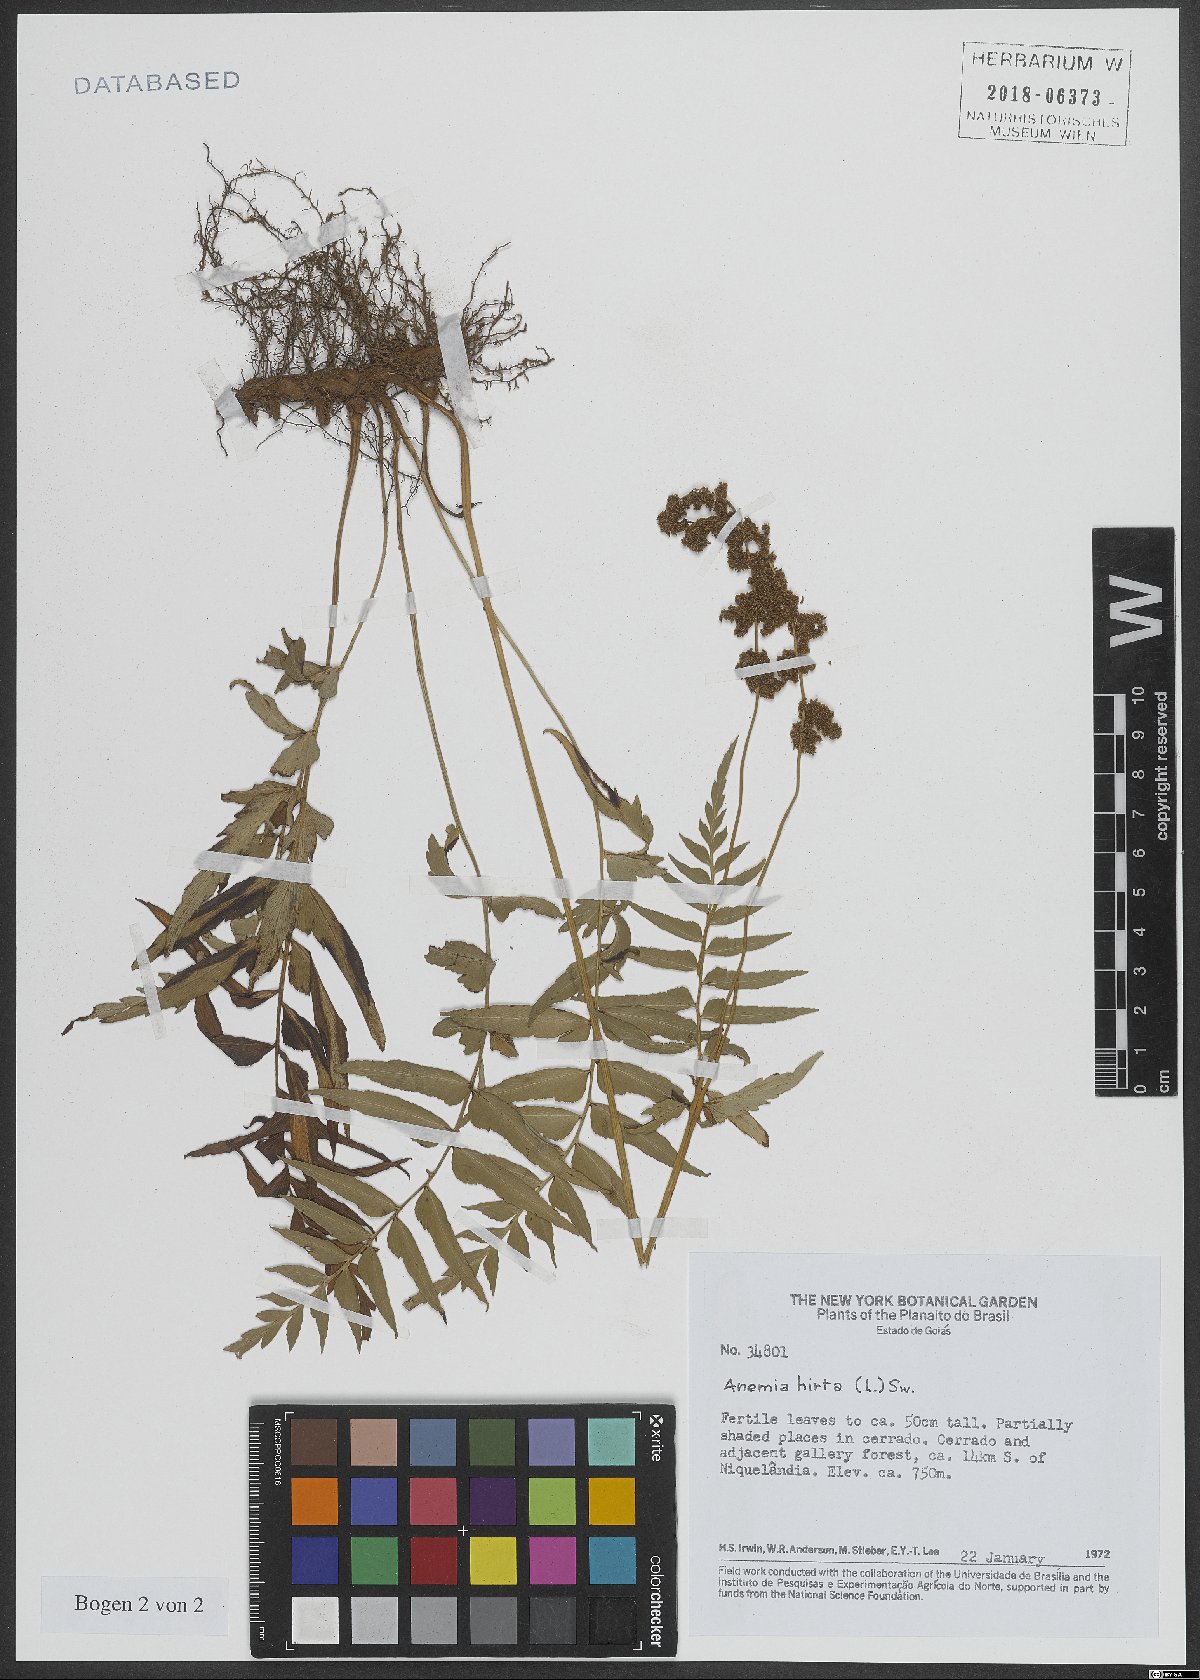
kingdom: Plantae
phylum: Tracheophyta
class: Polypodiopsida
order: Schizaeales
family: Anemiaceae
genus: Anemia
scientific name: Anemia hirta
